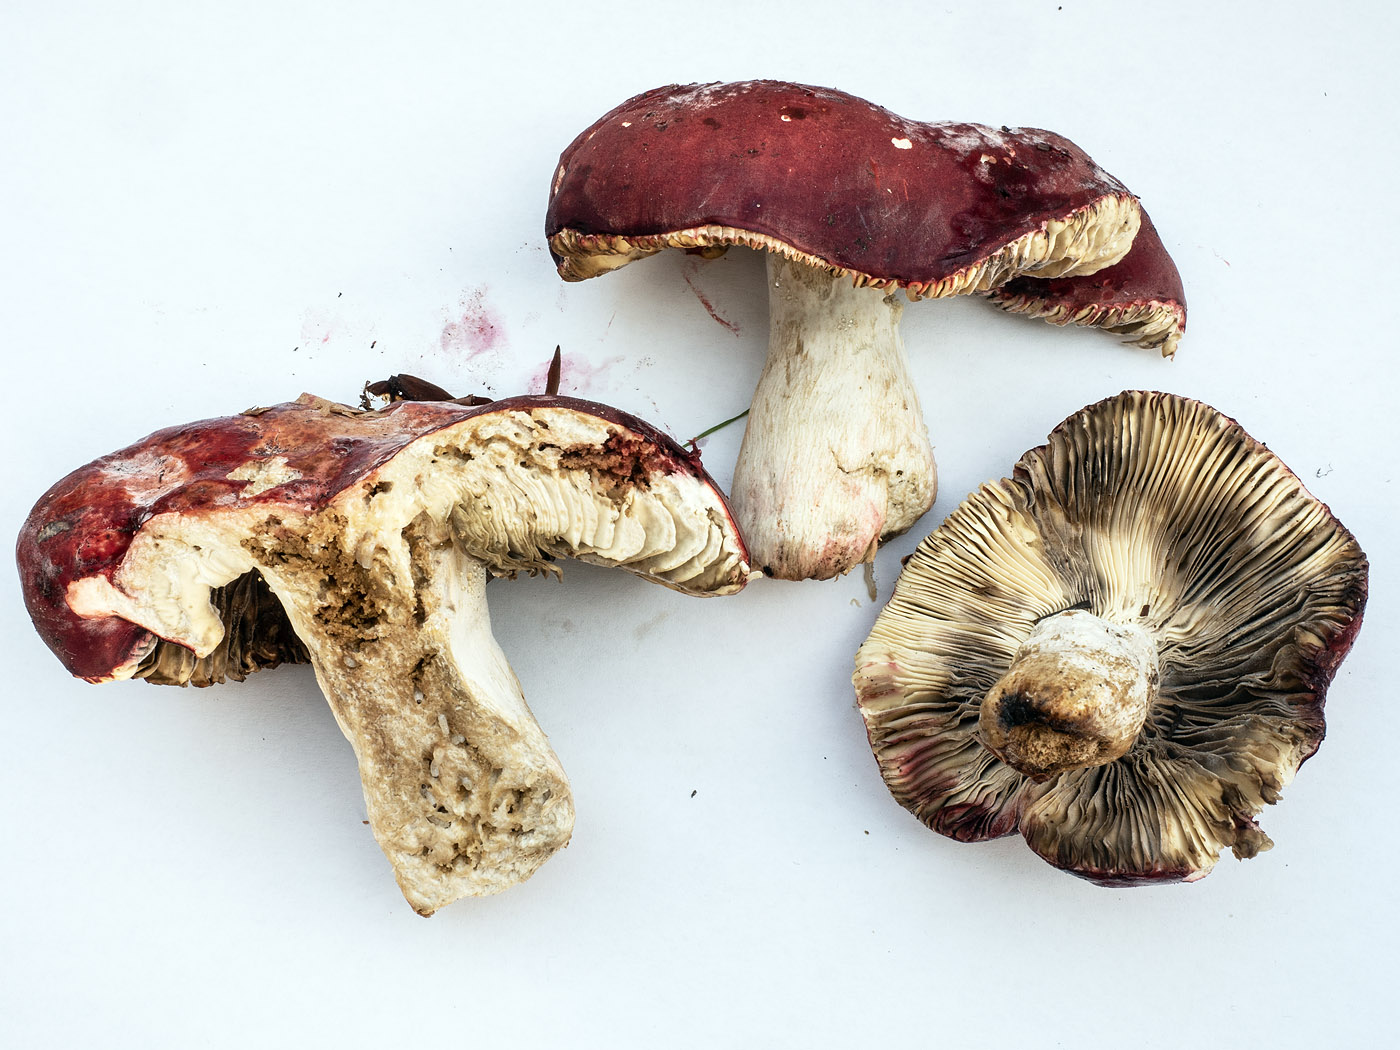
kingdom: Fungi
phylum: Basidiomycota
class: Agaricomycetes
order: Russulales
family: Russulaceae
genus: Russula
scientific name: Russula rosea
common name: fastkødet skørhat
